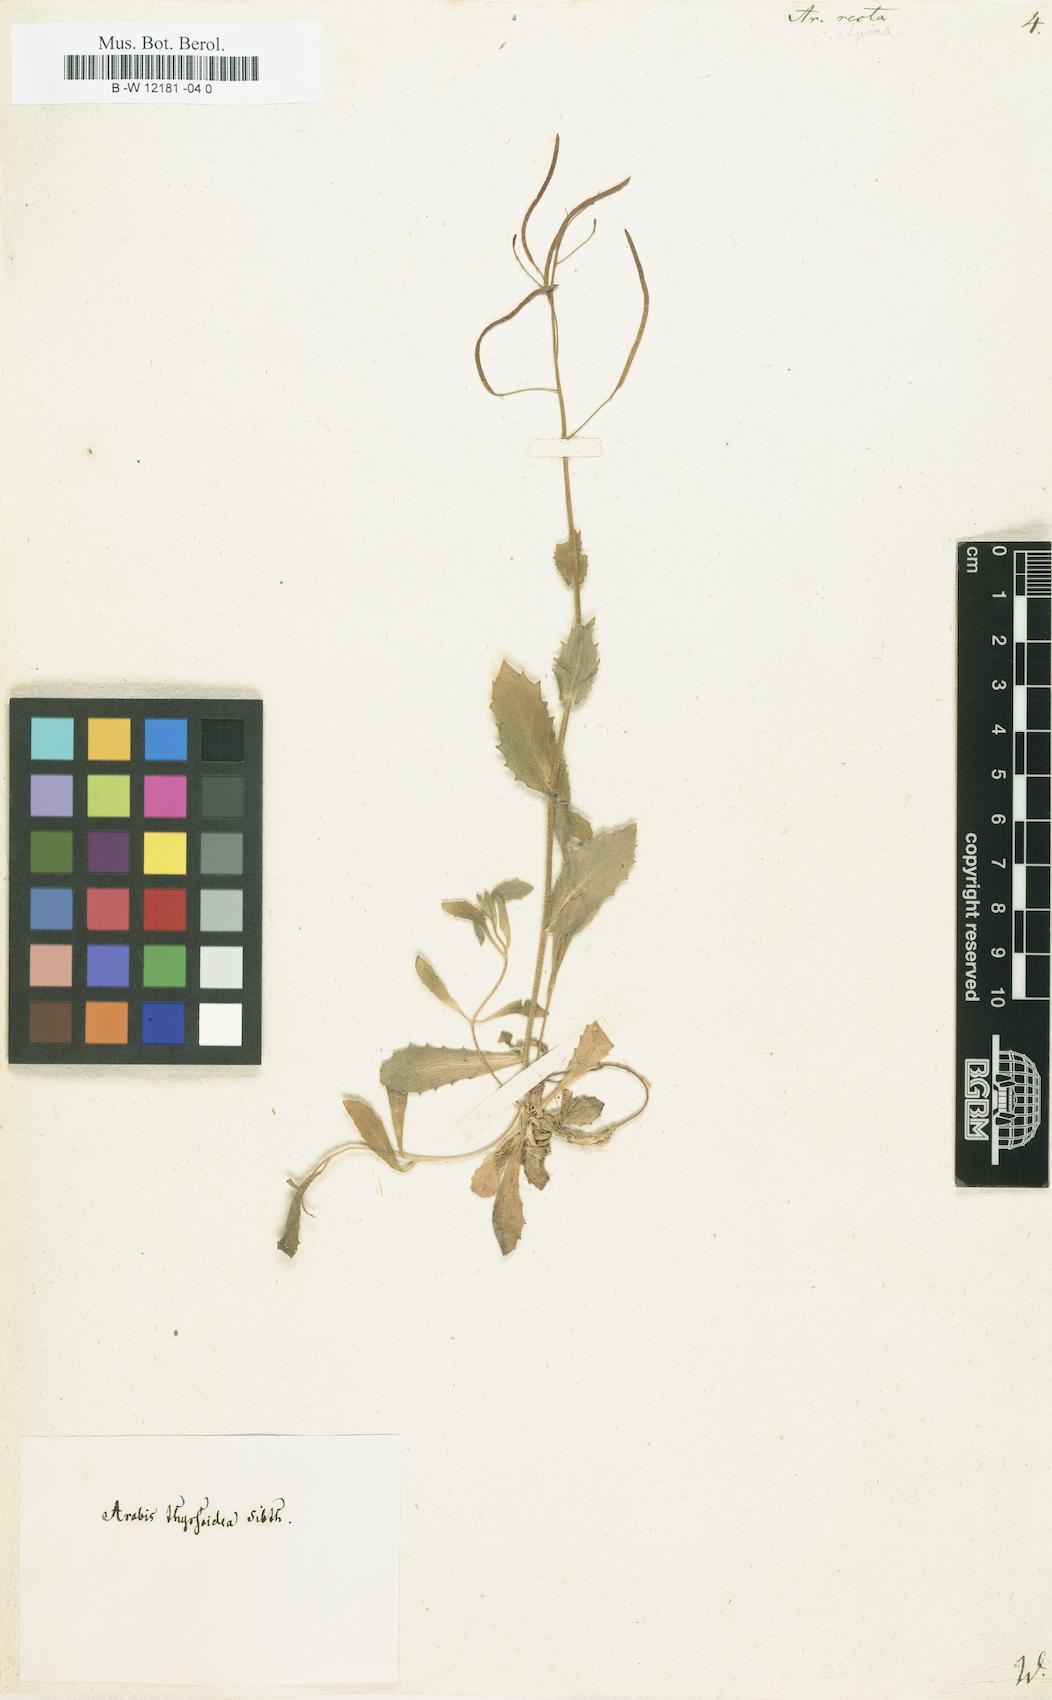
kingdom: Plantae
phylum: Tracheophyta
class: Magnoliopsida
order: Brassicales
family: Brassicaceae
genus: Arabis
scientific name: Arabis auriculata
